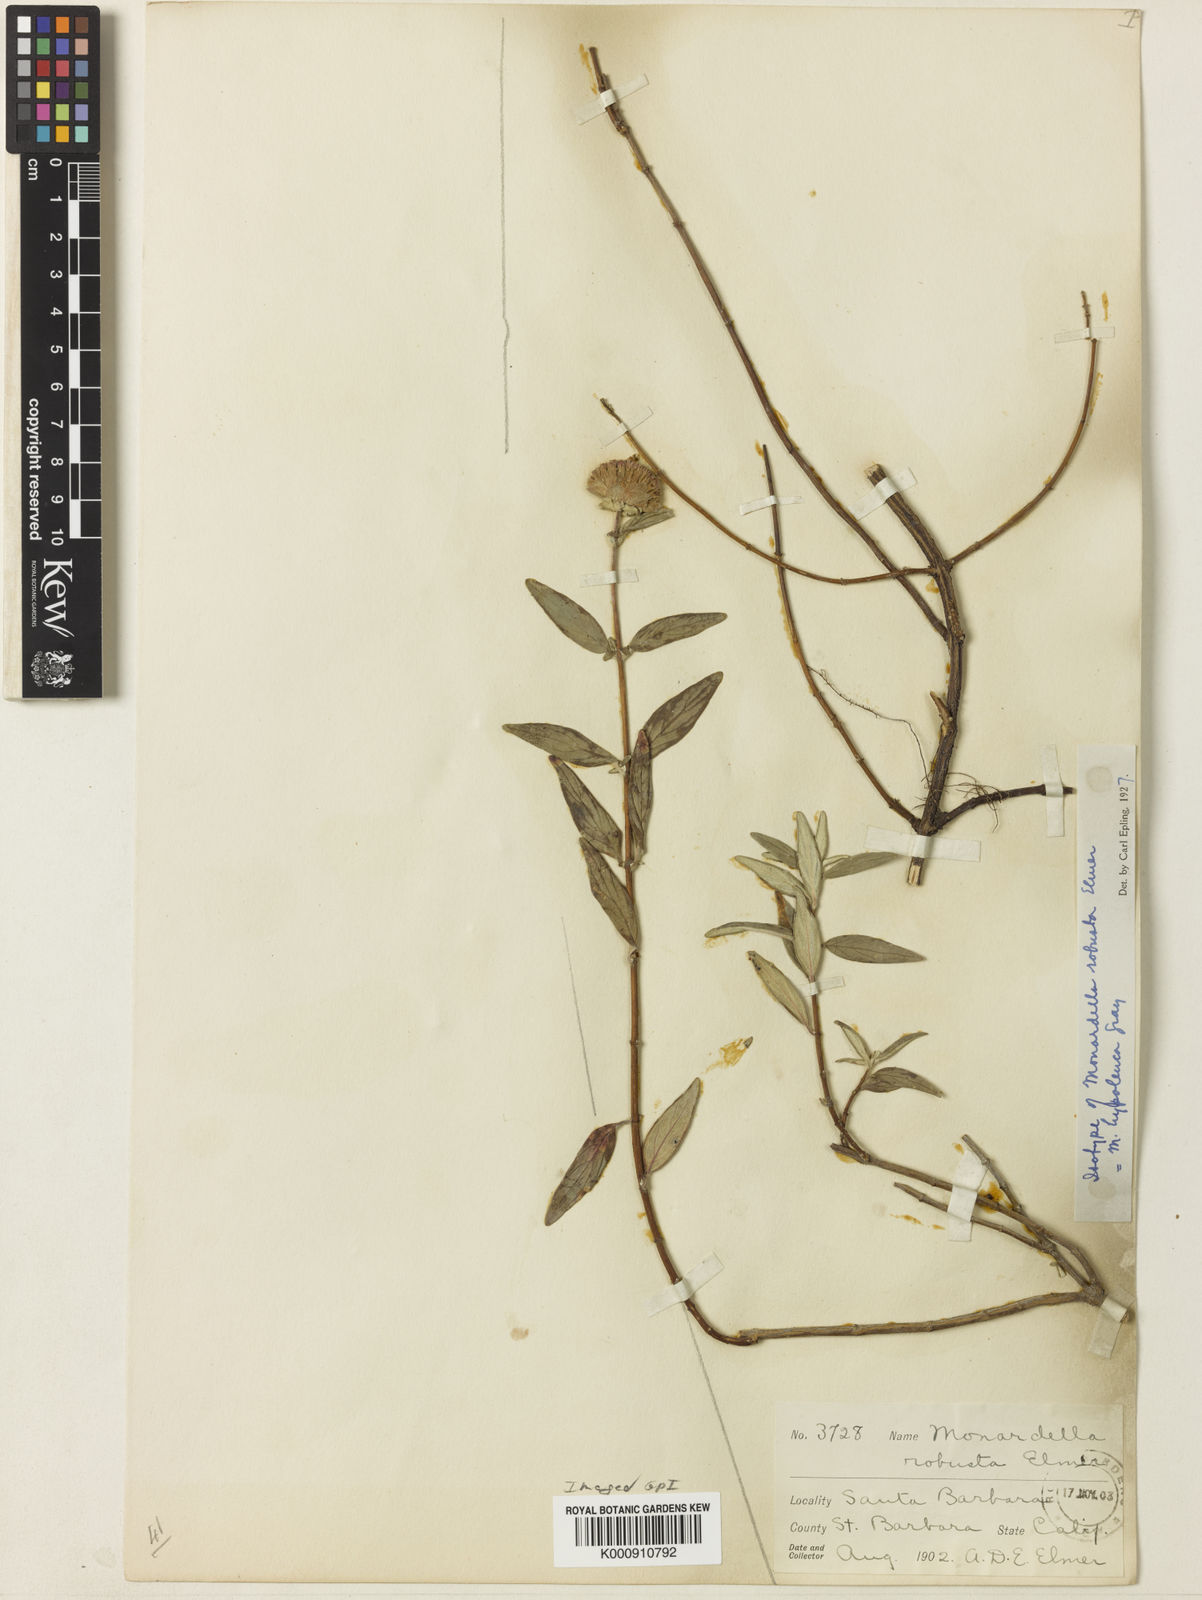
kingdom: Plantae
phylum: Tracheophyta
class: Magnoliopsida
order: Lamiales
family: Lamiaceae
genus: Monardella
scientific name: Monardella hypoleuca
